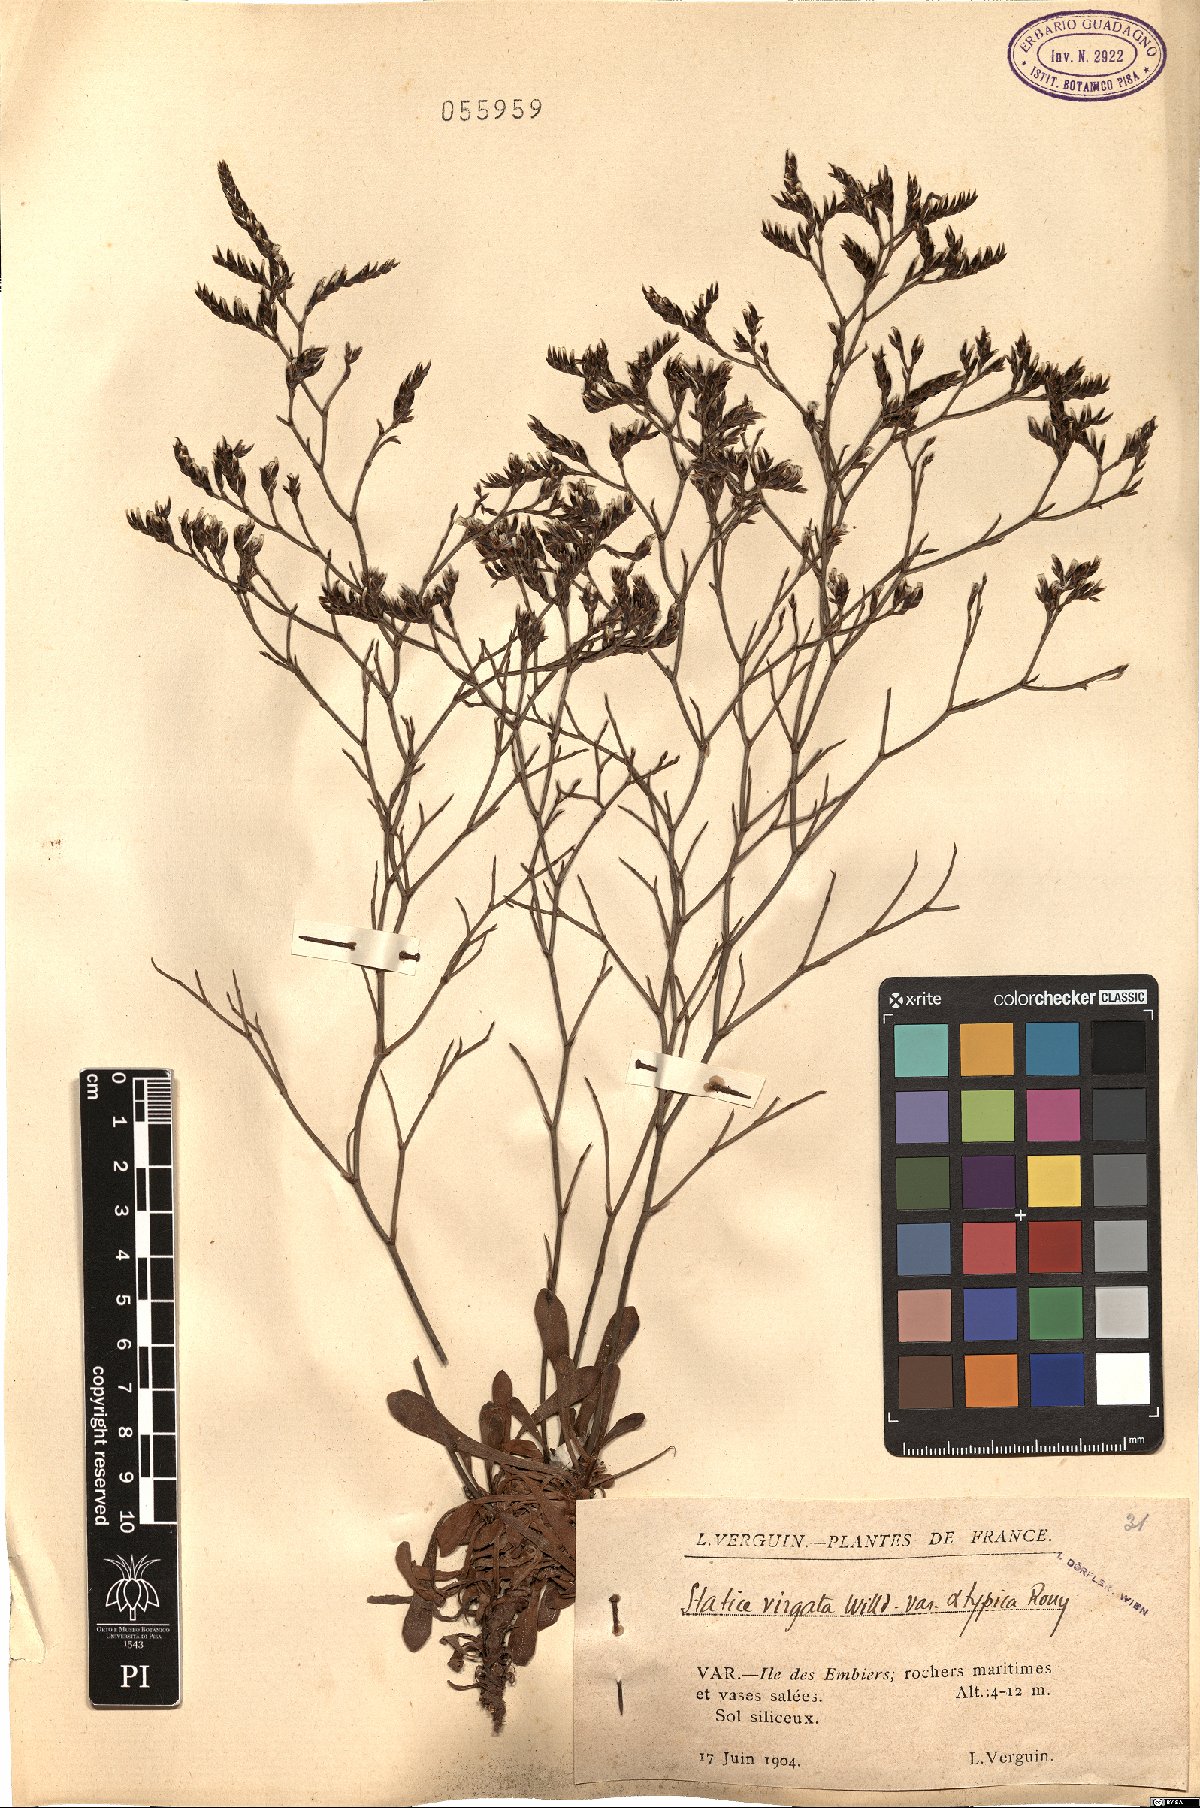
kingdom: Plantae
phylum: Tracheophyta
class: Magnoliopsida
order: Caryophyllales
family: Plumbaginaceae
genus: Limonium
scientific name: Limonium virgatum
